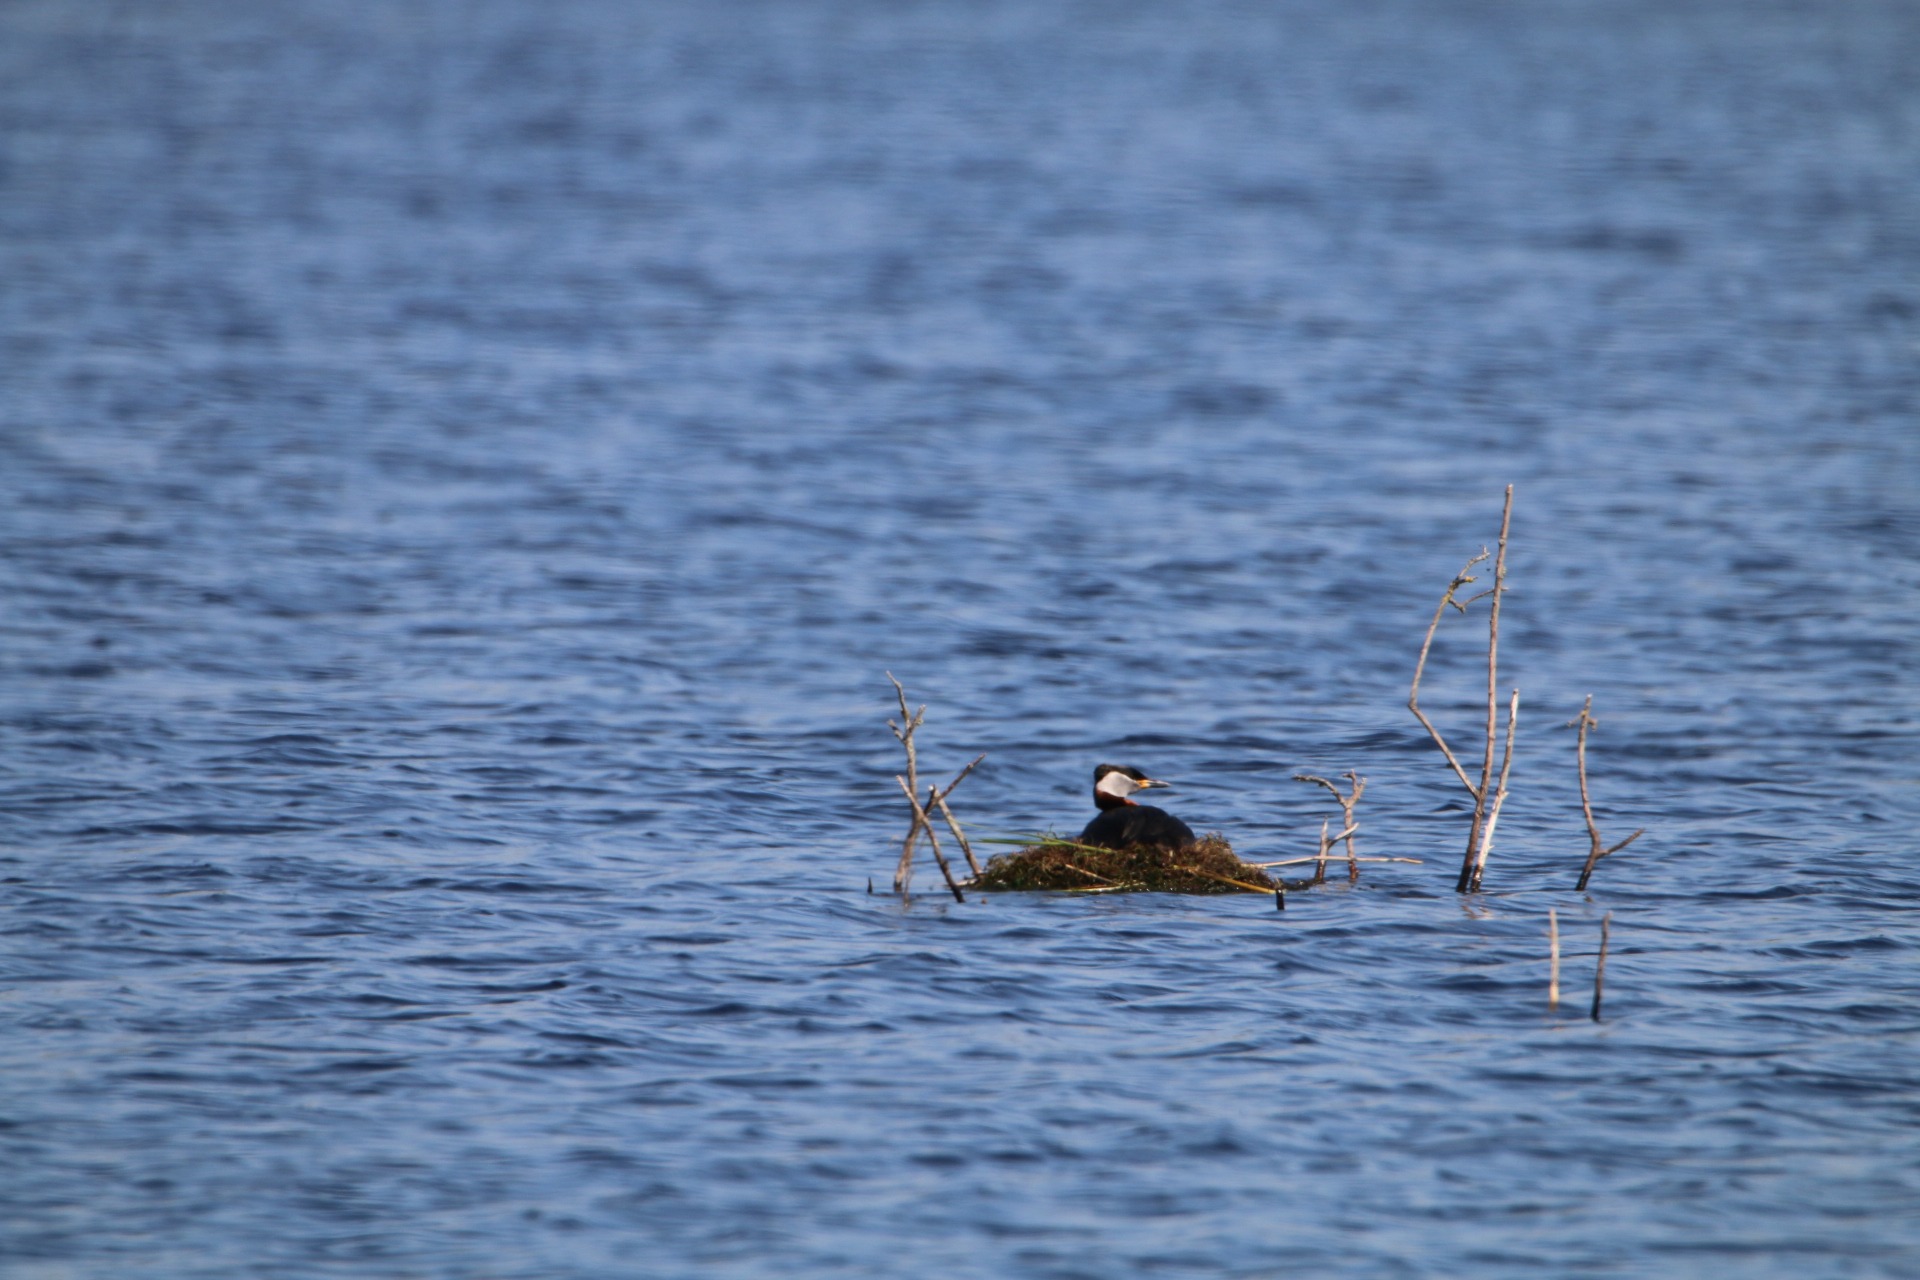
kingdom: Animalia
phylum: Chordata
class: Aves
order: Podicipediformes
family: Podicipedidae
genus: Podiceps
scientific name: Podiceps grisegena
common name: Gråstrubet lappedykker
